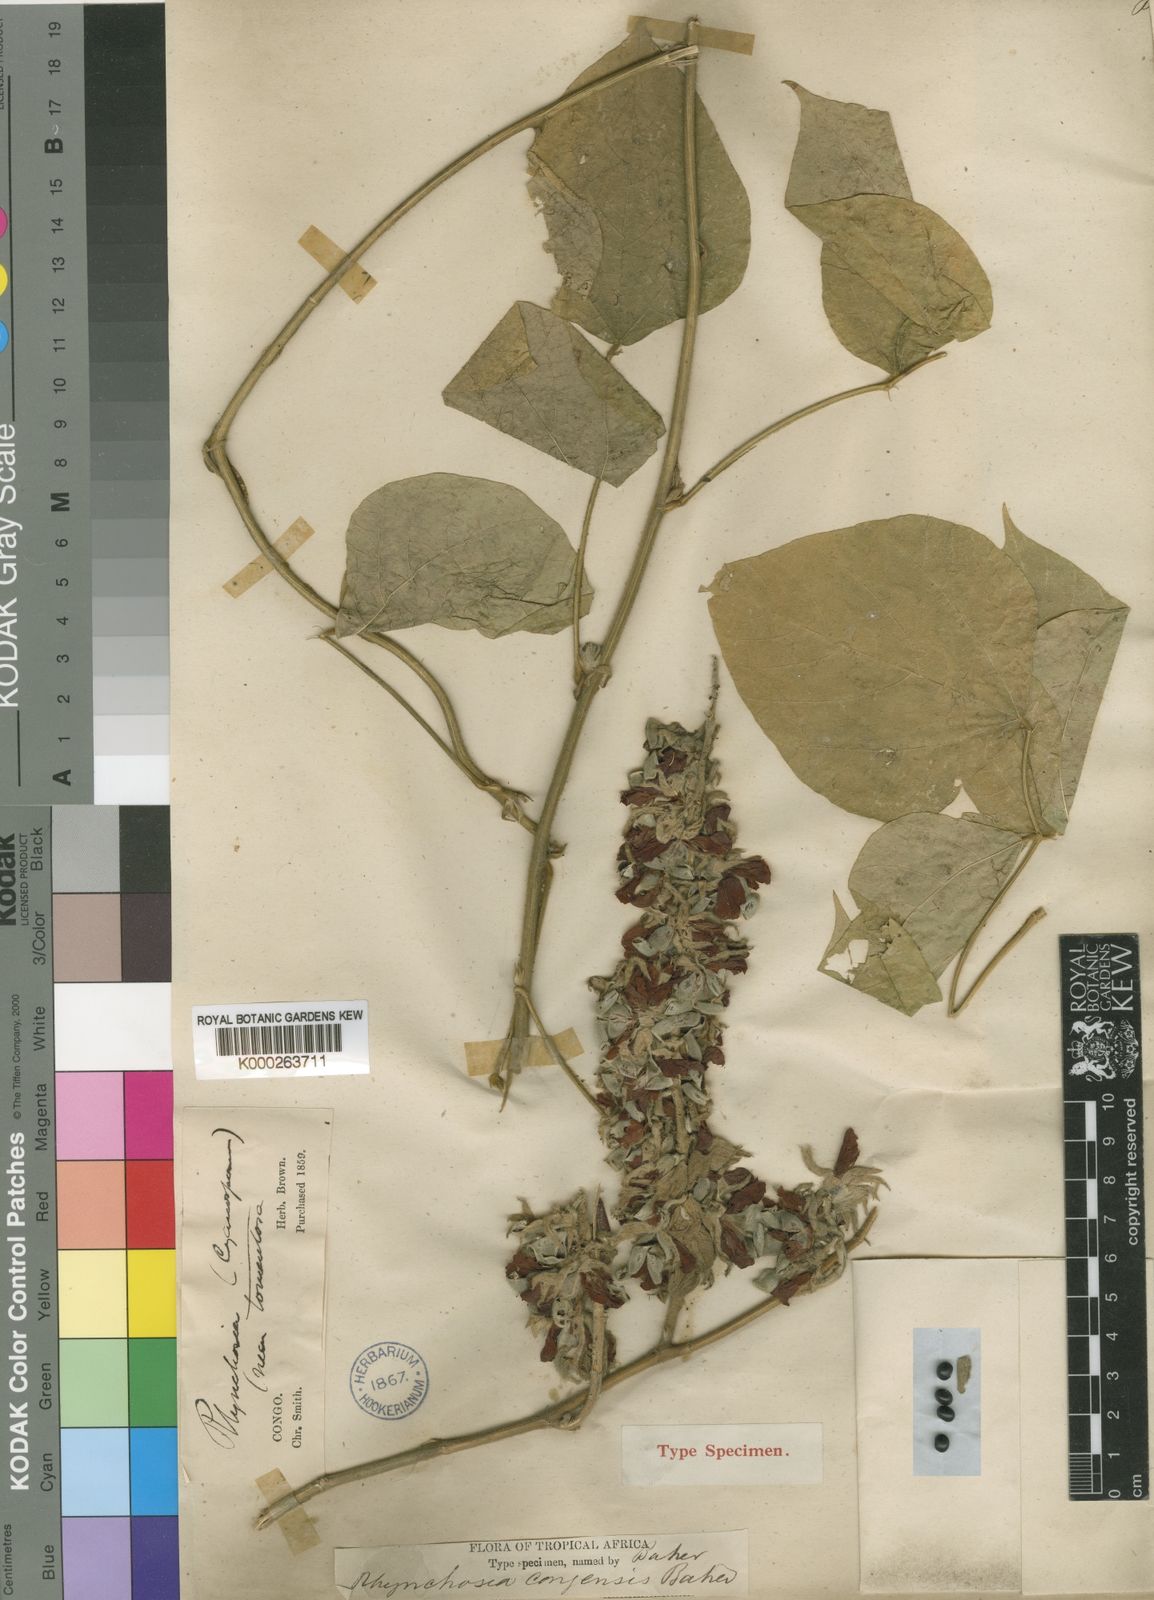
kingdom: Plantae
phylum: Tracheophyta
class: Magnoliopsida
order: Fabales
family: Fabaceae
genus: Rhynchosia
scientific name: Rhynchosia congensis
